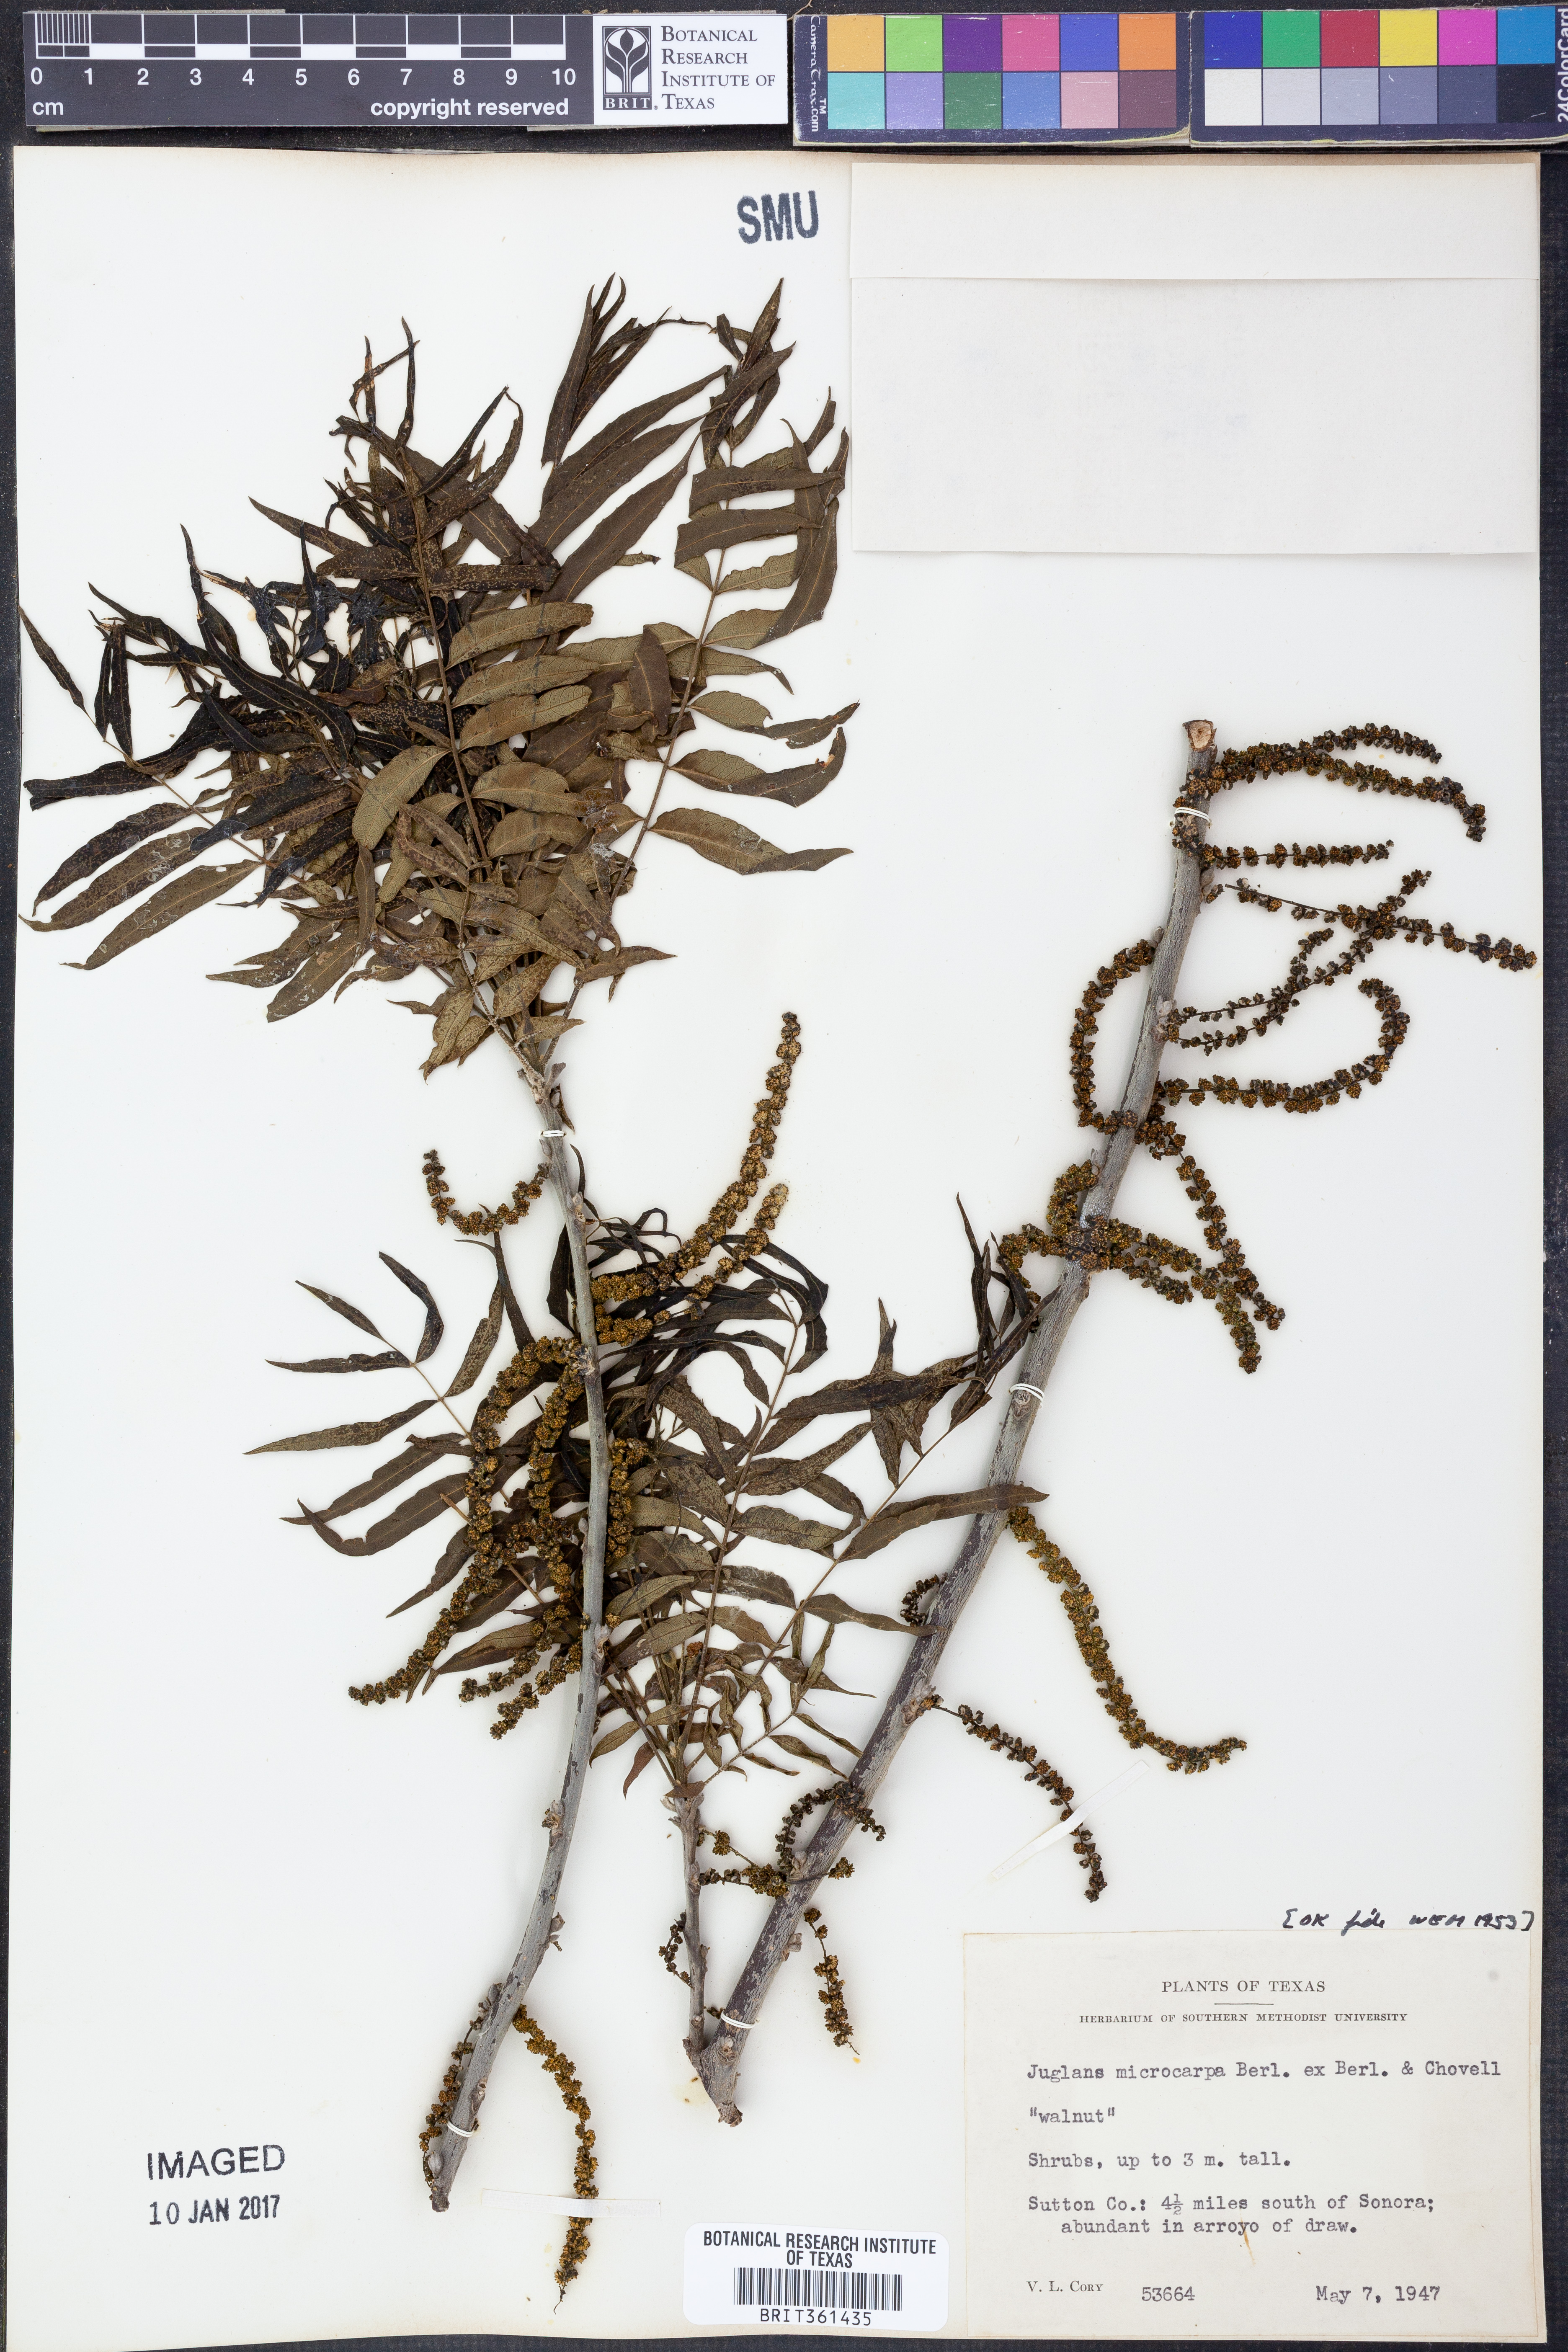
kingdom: Plantae
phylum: Tracheophyta
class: Magnoliopsida
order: Fagales
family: Juglandaceae
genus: Juglans
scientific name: Juglans microcarpa
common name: Texas walnut
